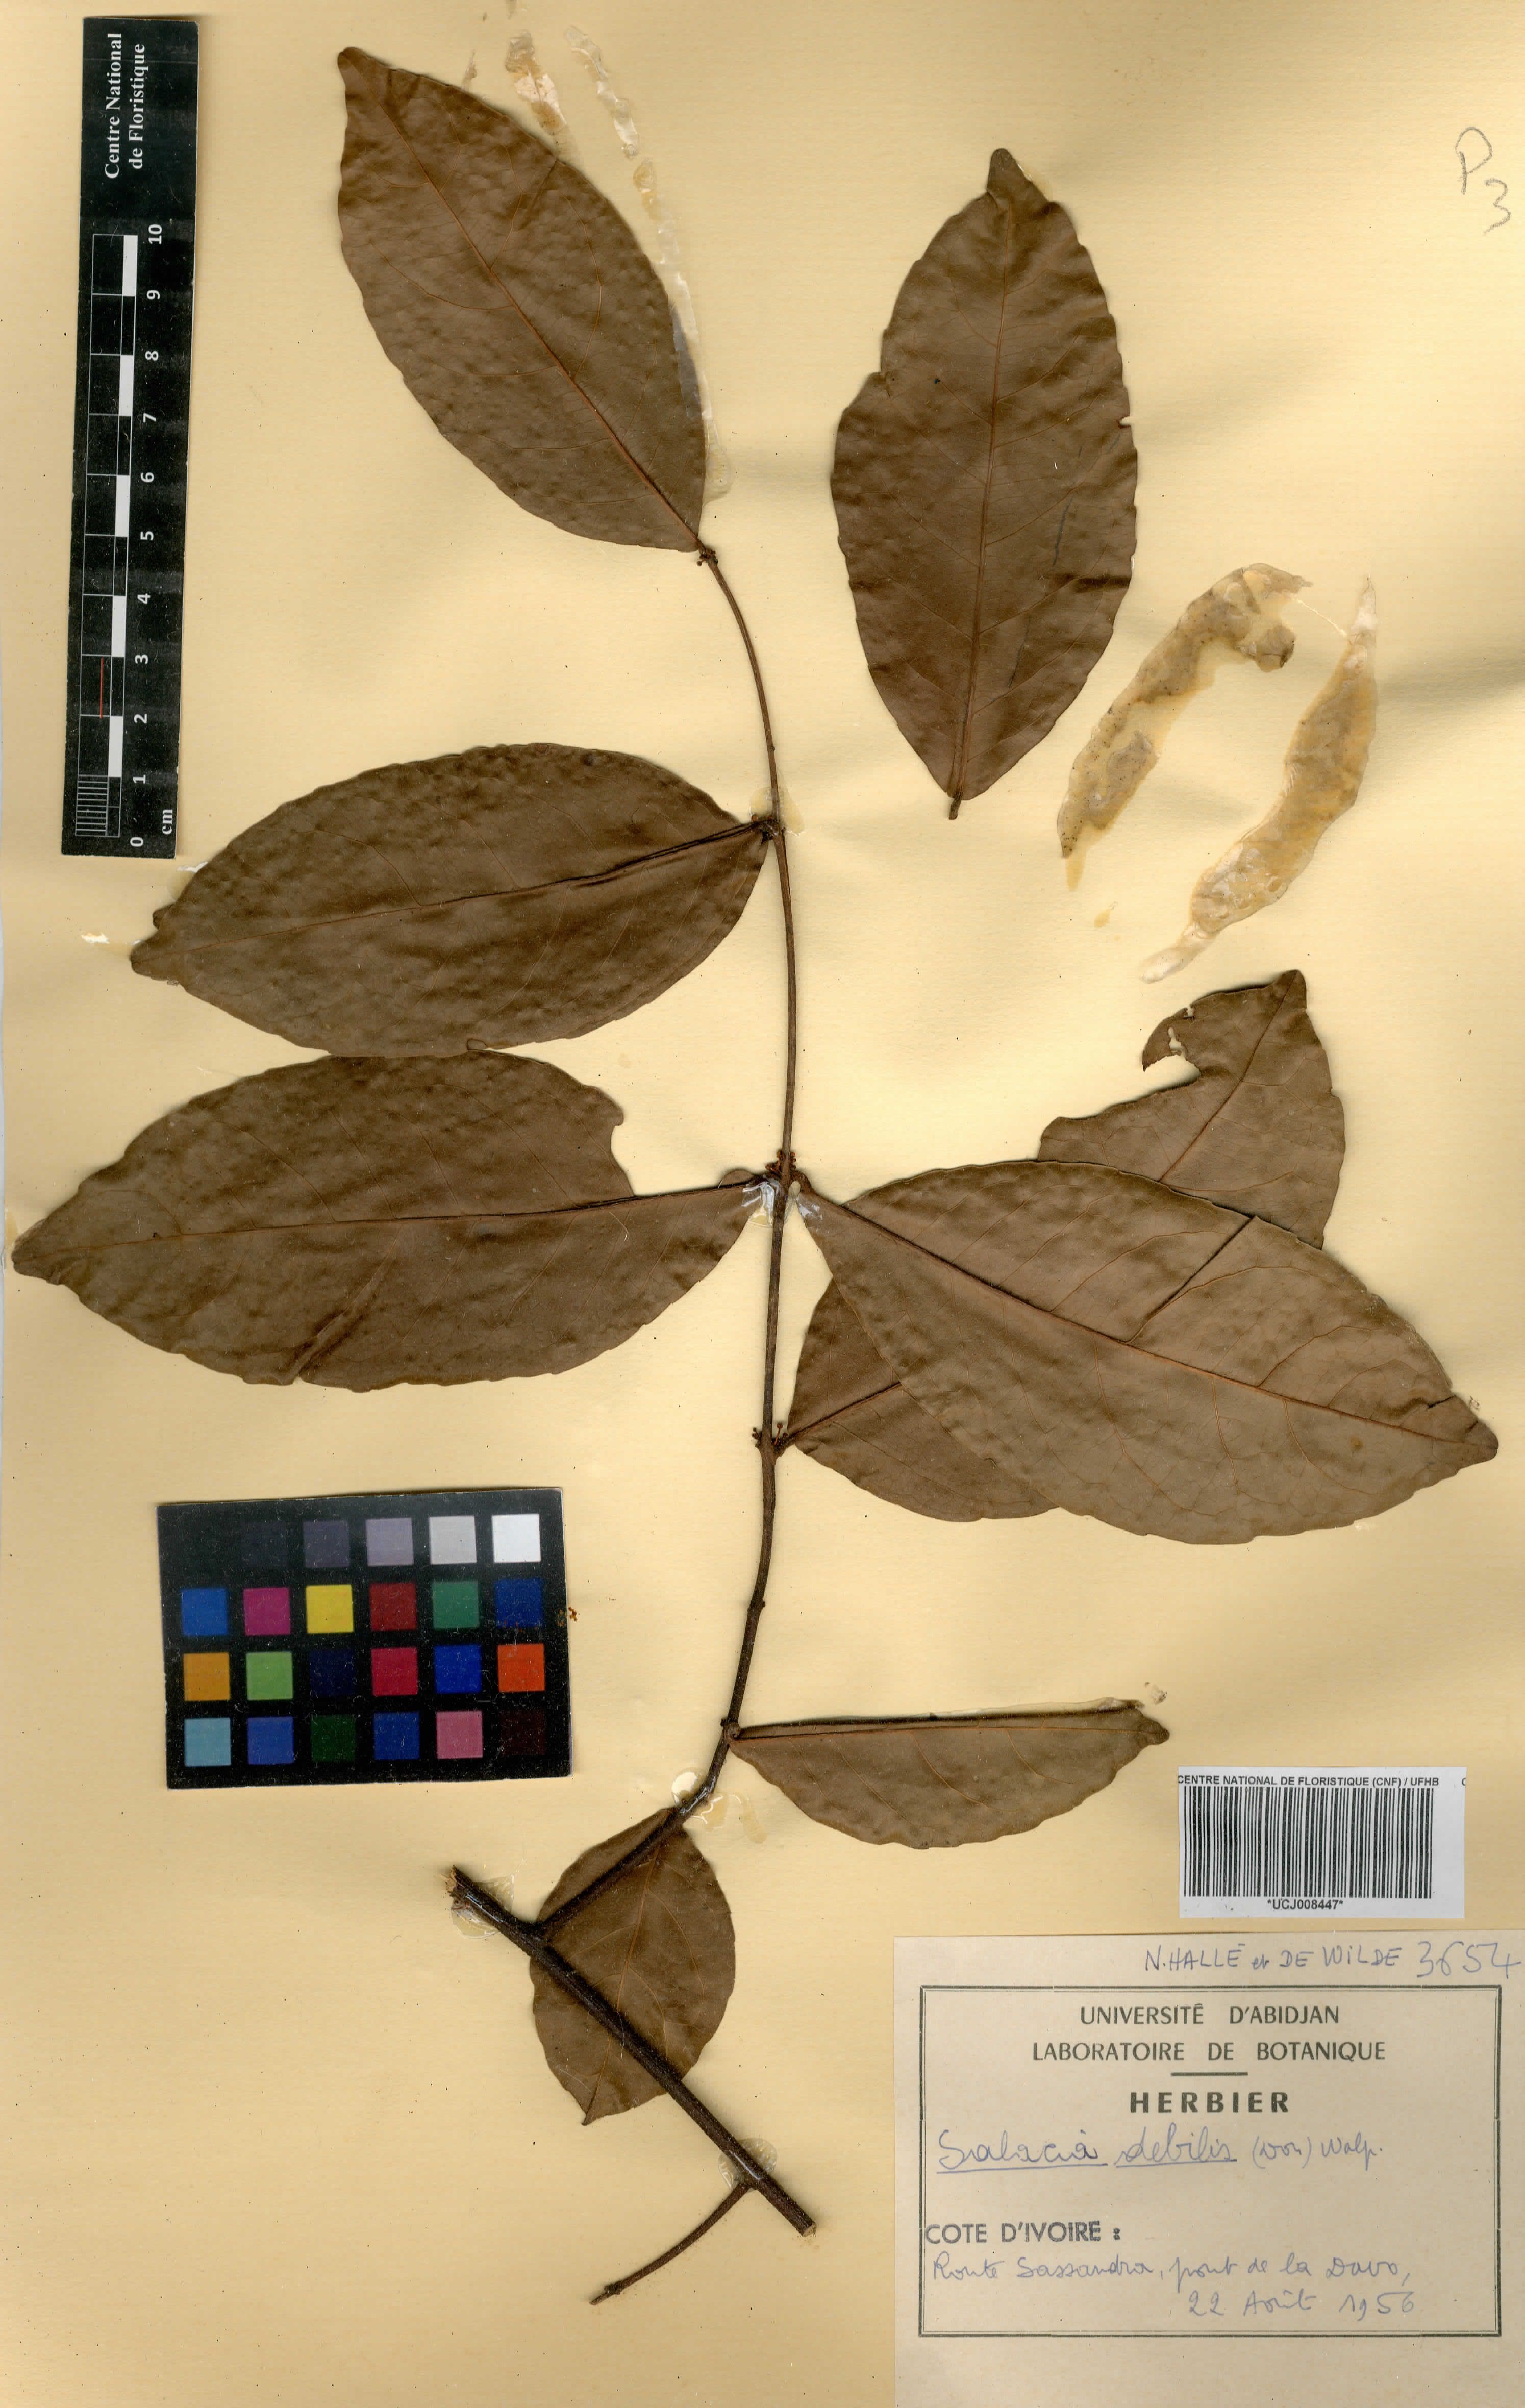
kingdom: Plantae
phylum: Tracheophyta
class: Magnoliopsida
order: Celastrales
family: Celastraceae
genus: Salacia
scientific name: Salacia debilis
